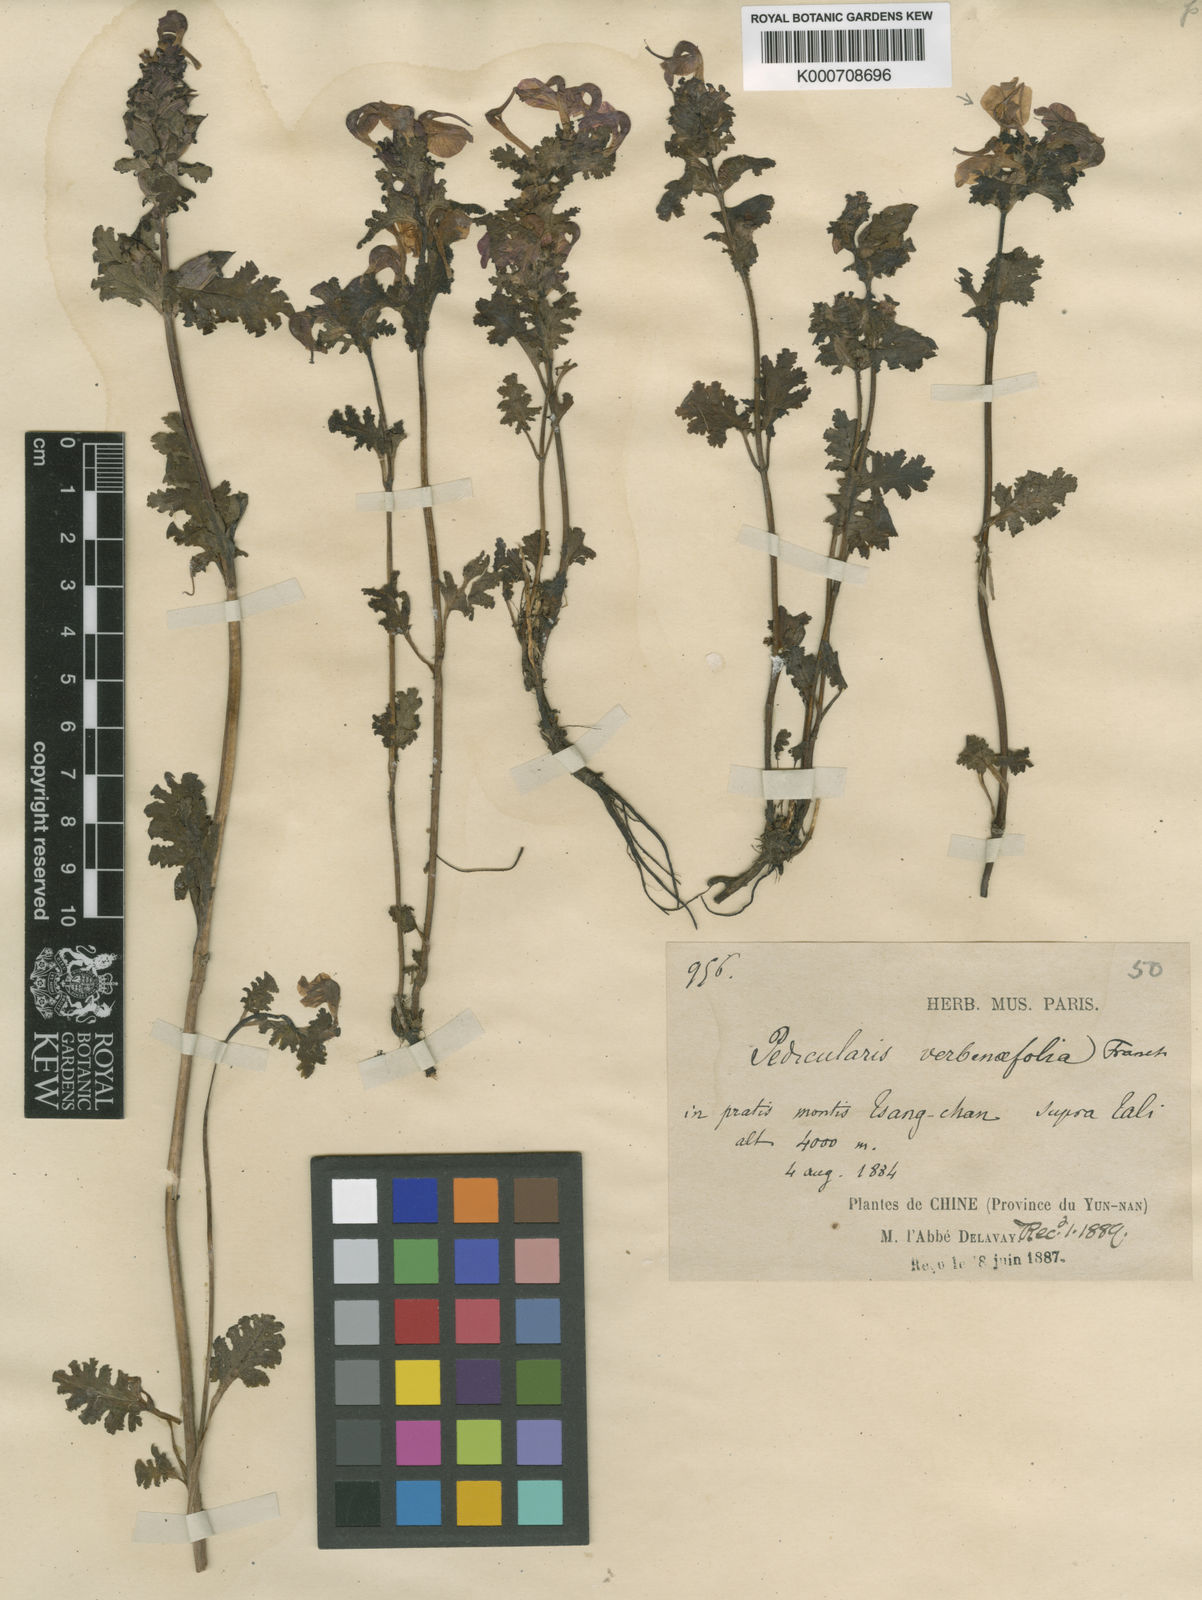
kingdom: Plantae
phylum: Tracheophyta
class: Magnoliopsida
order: Lamiales
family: Orobanchaceae
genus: Pedicularis
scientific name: Pedicularis
